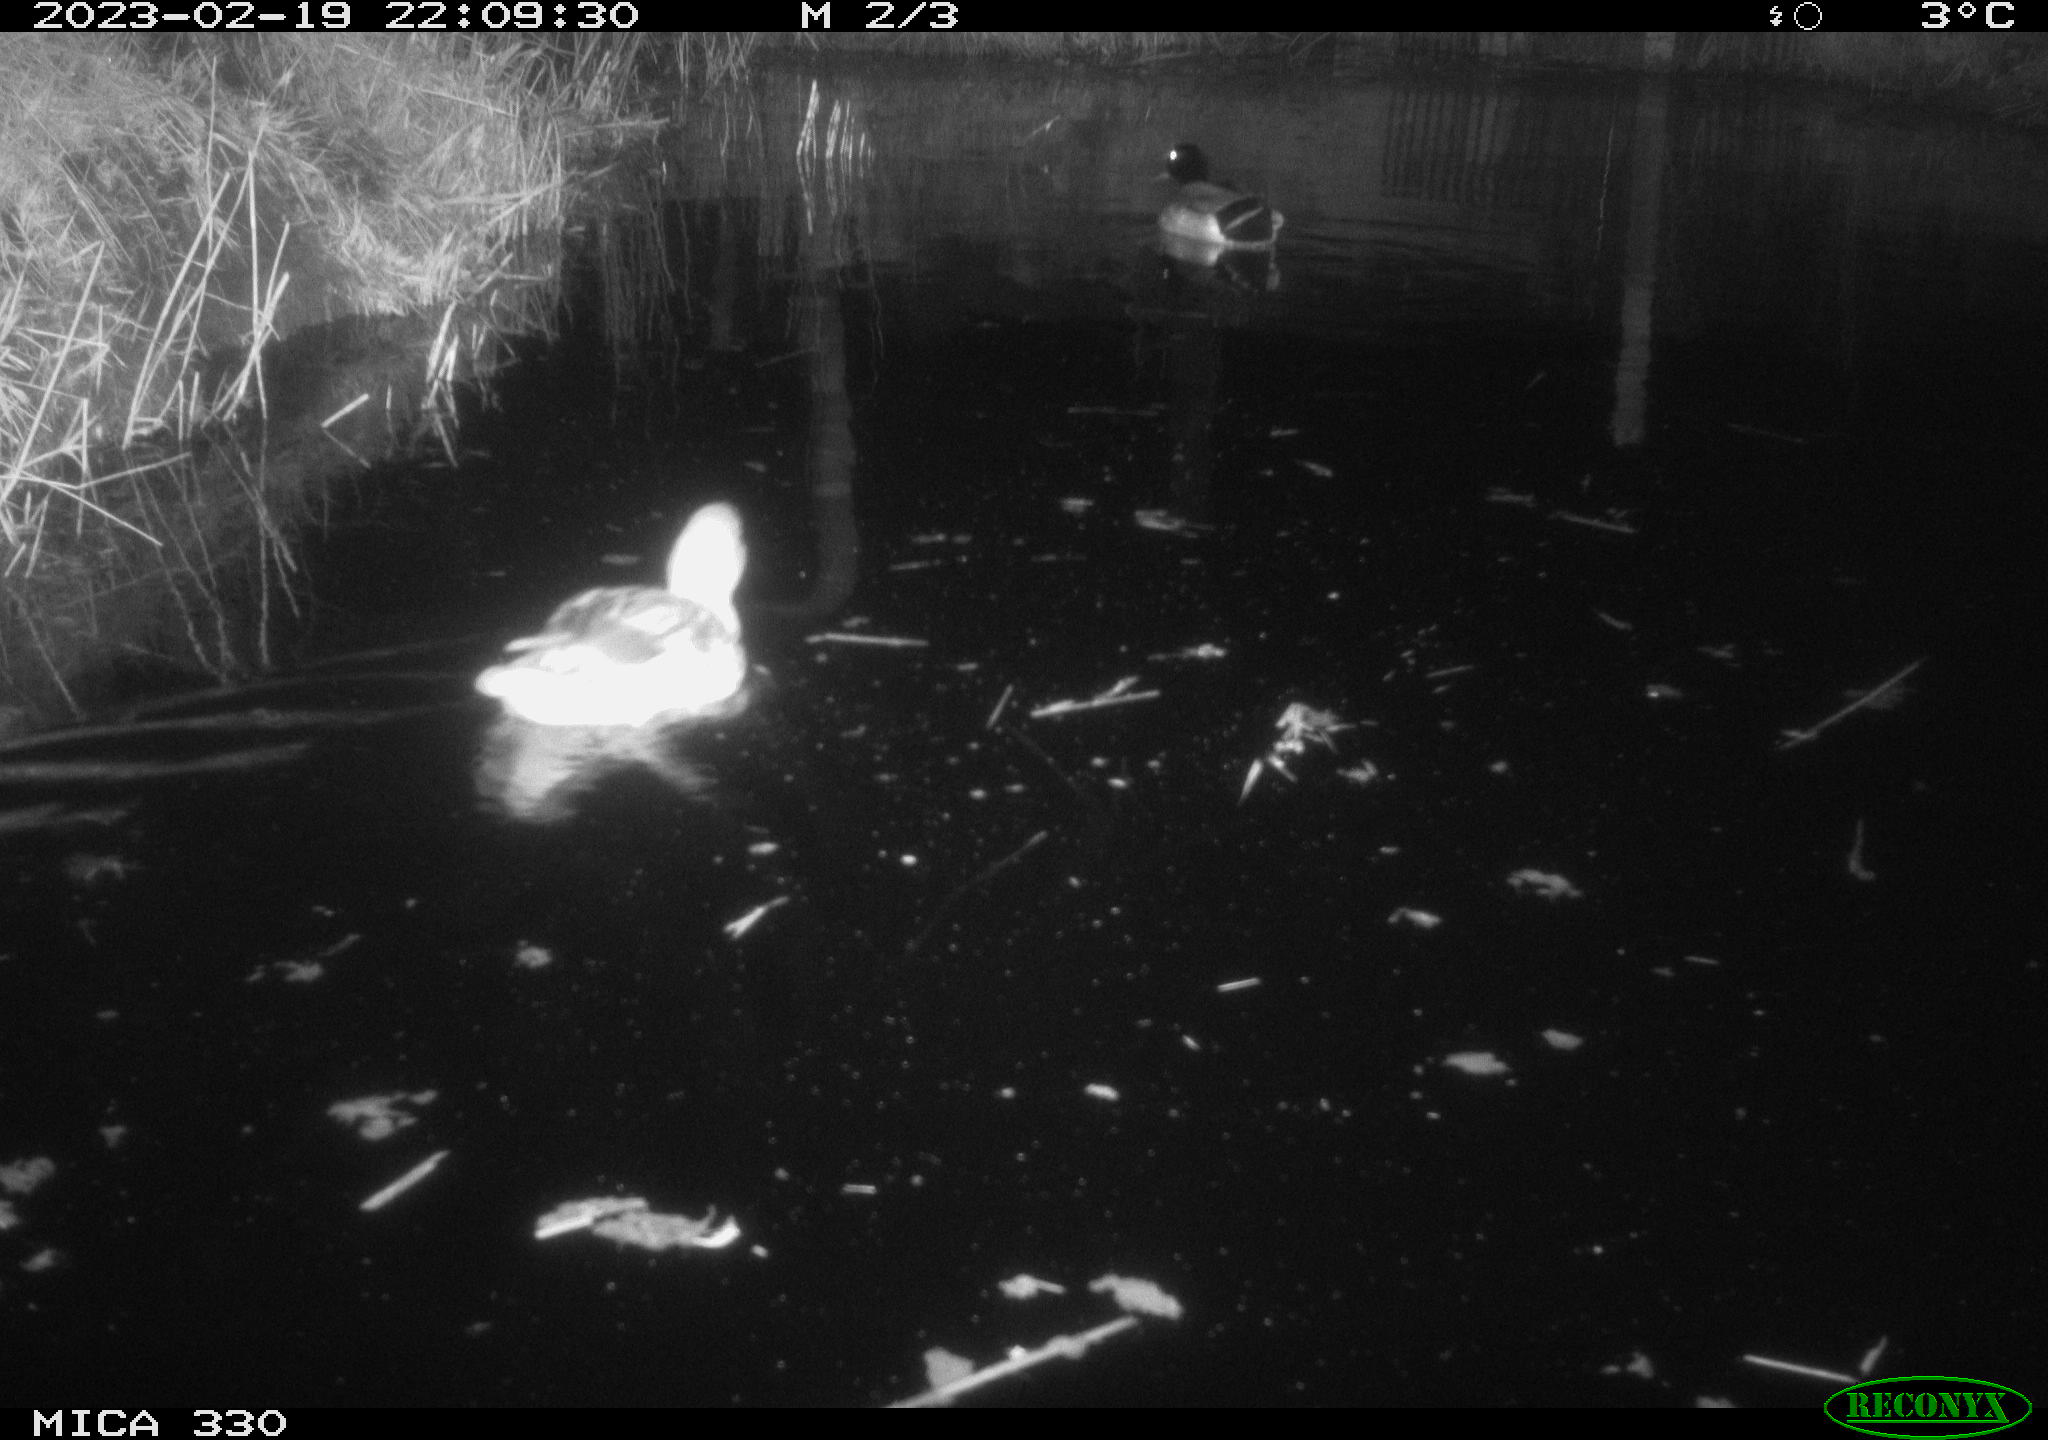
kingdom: Animalia
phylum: Chordata
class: Aves
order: Anseriformes
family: Anatidae
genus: Anas
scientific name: Anas
